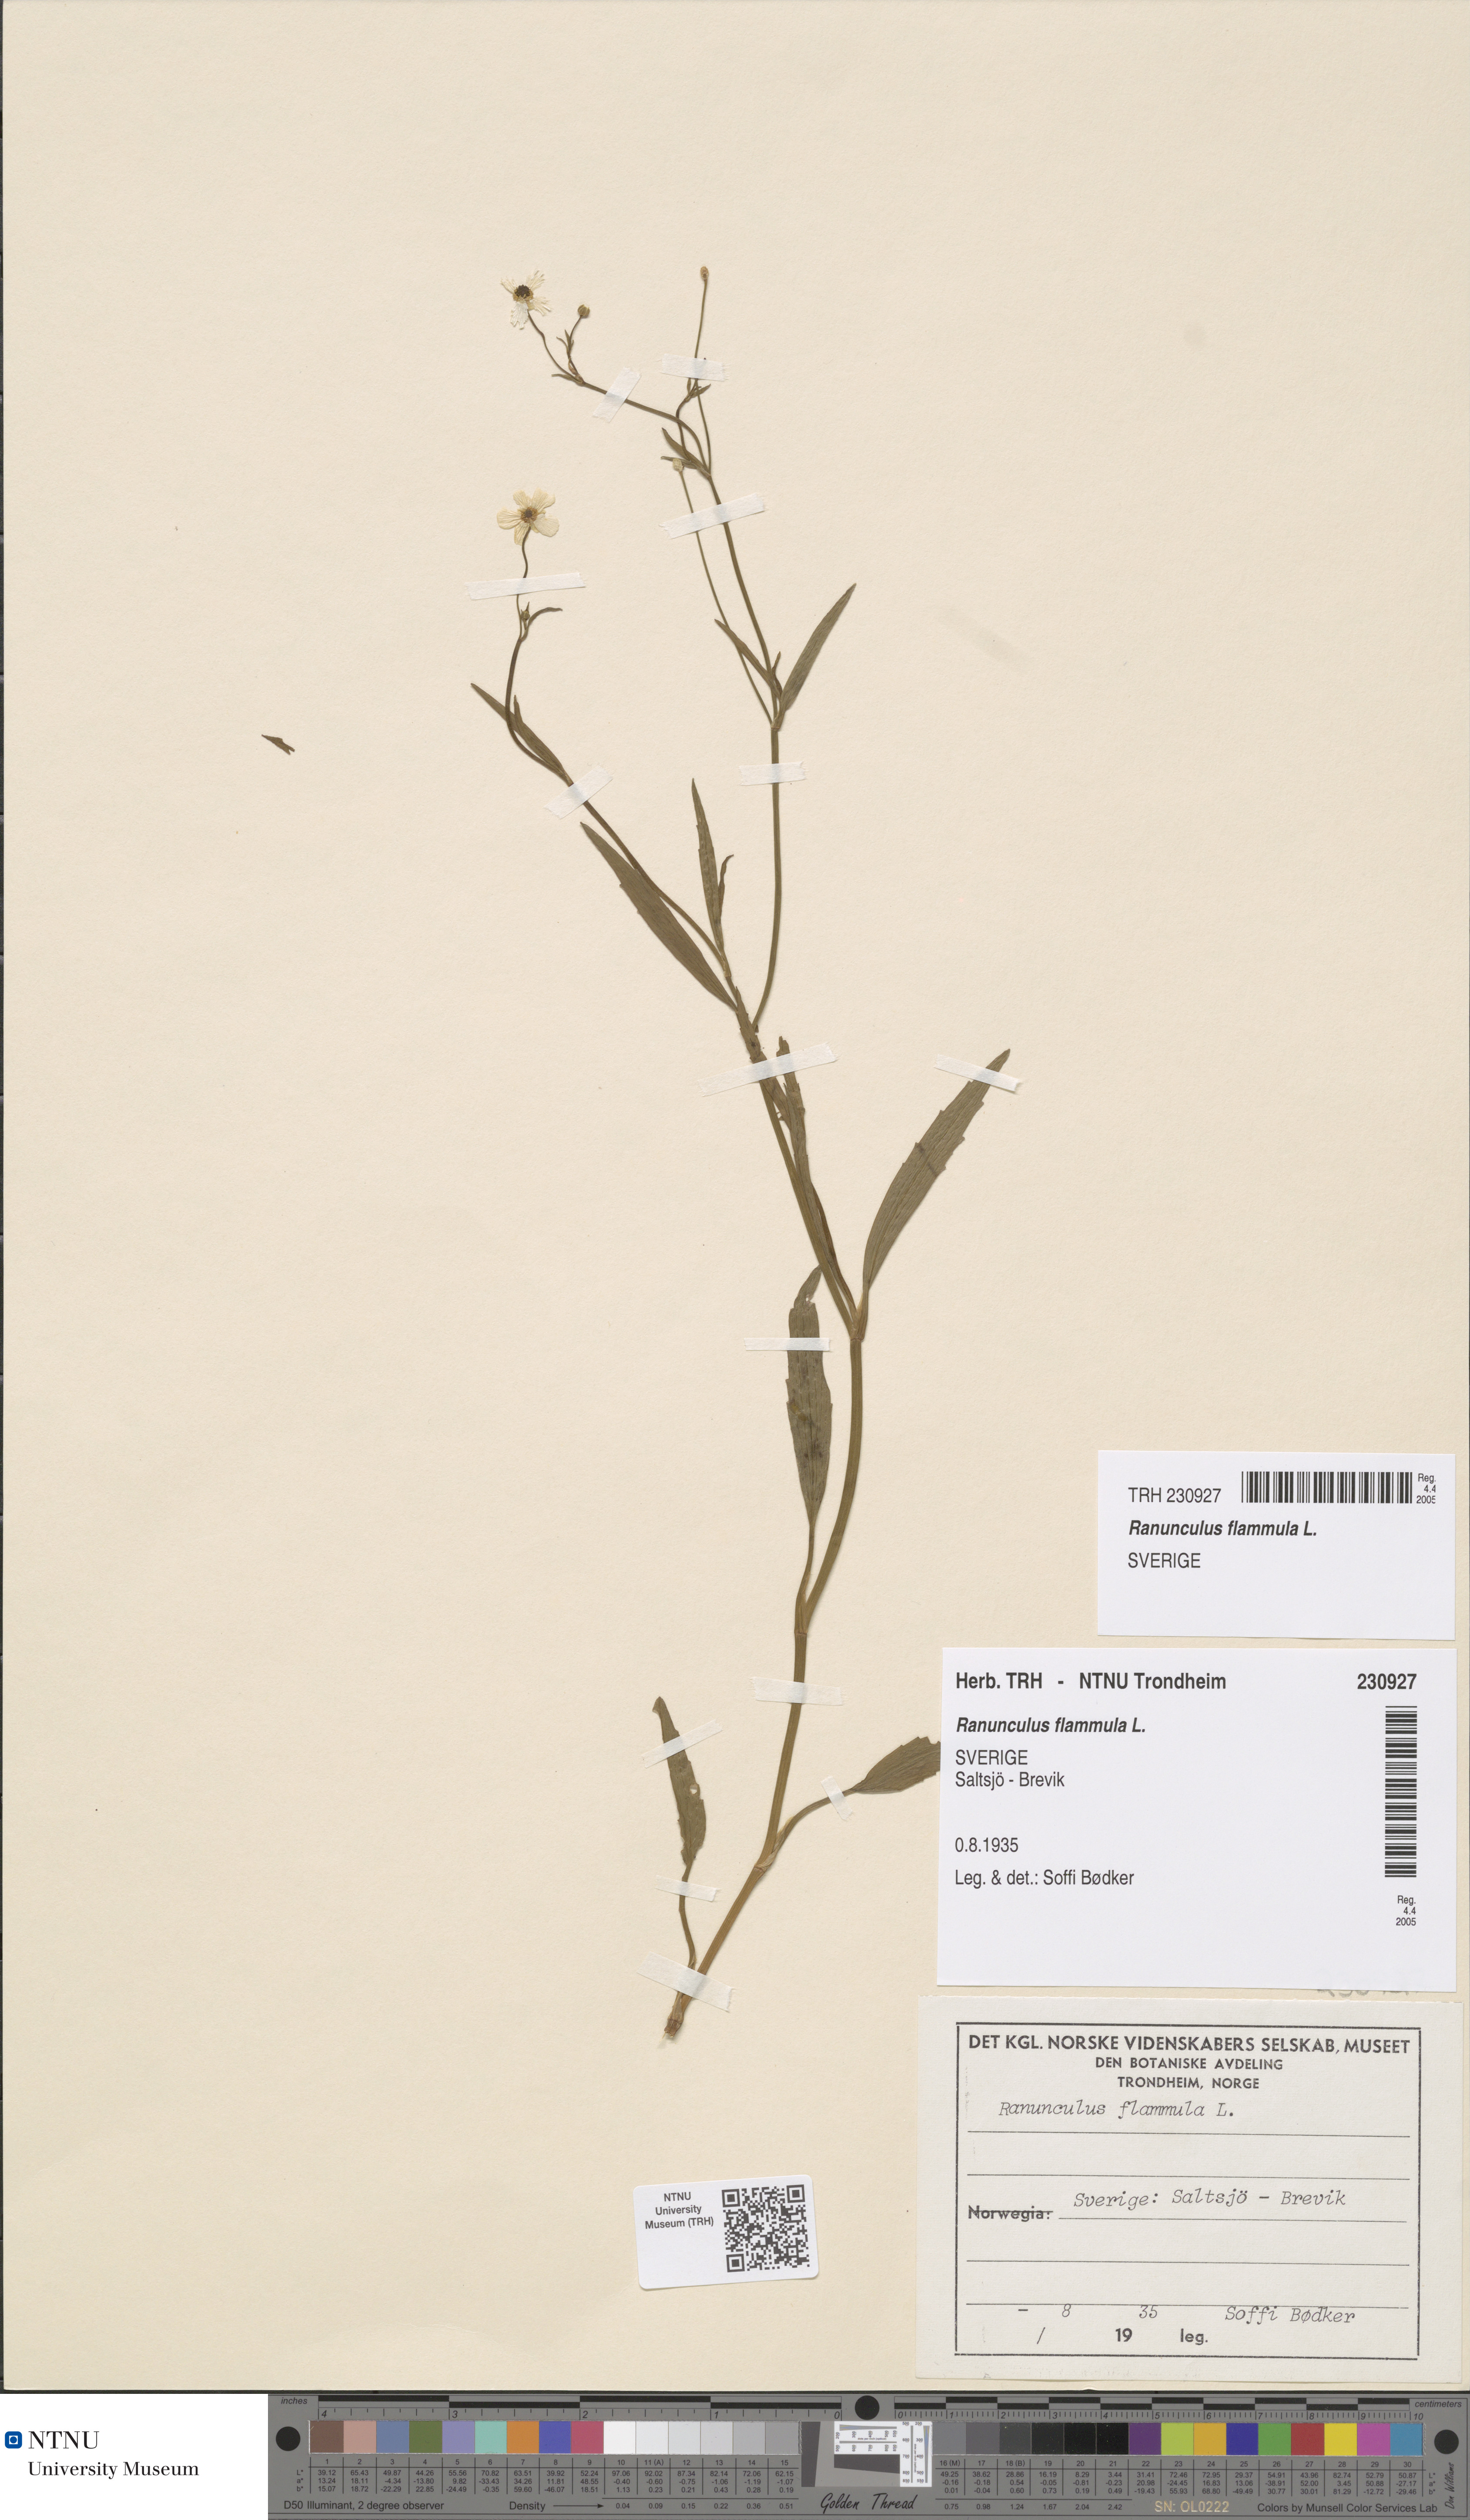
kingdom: Plantae
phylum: Tracheophyta
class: Magnoliopsida
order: Ranunculales
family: Ranunculaceae
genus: Ranunculus
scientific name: Ranunculus flammula
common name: Lesser spearwort
